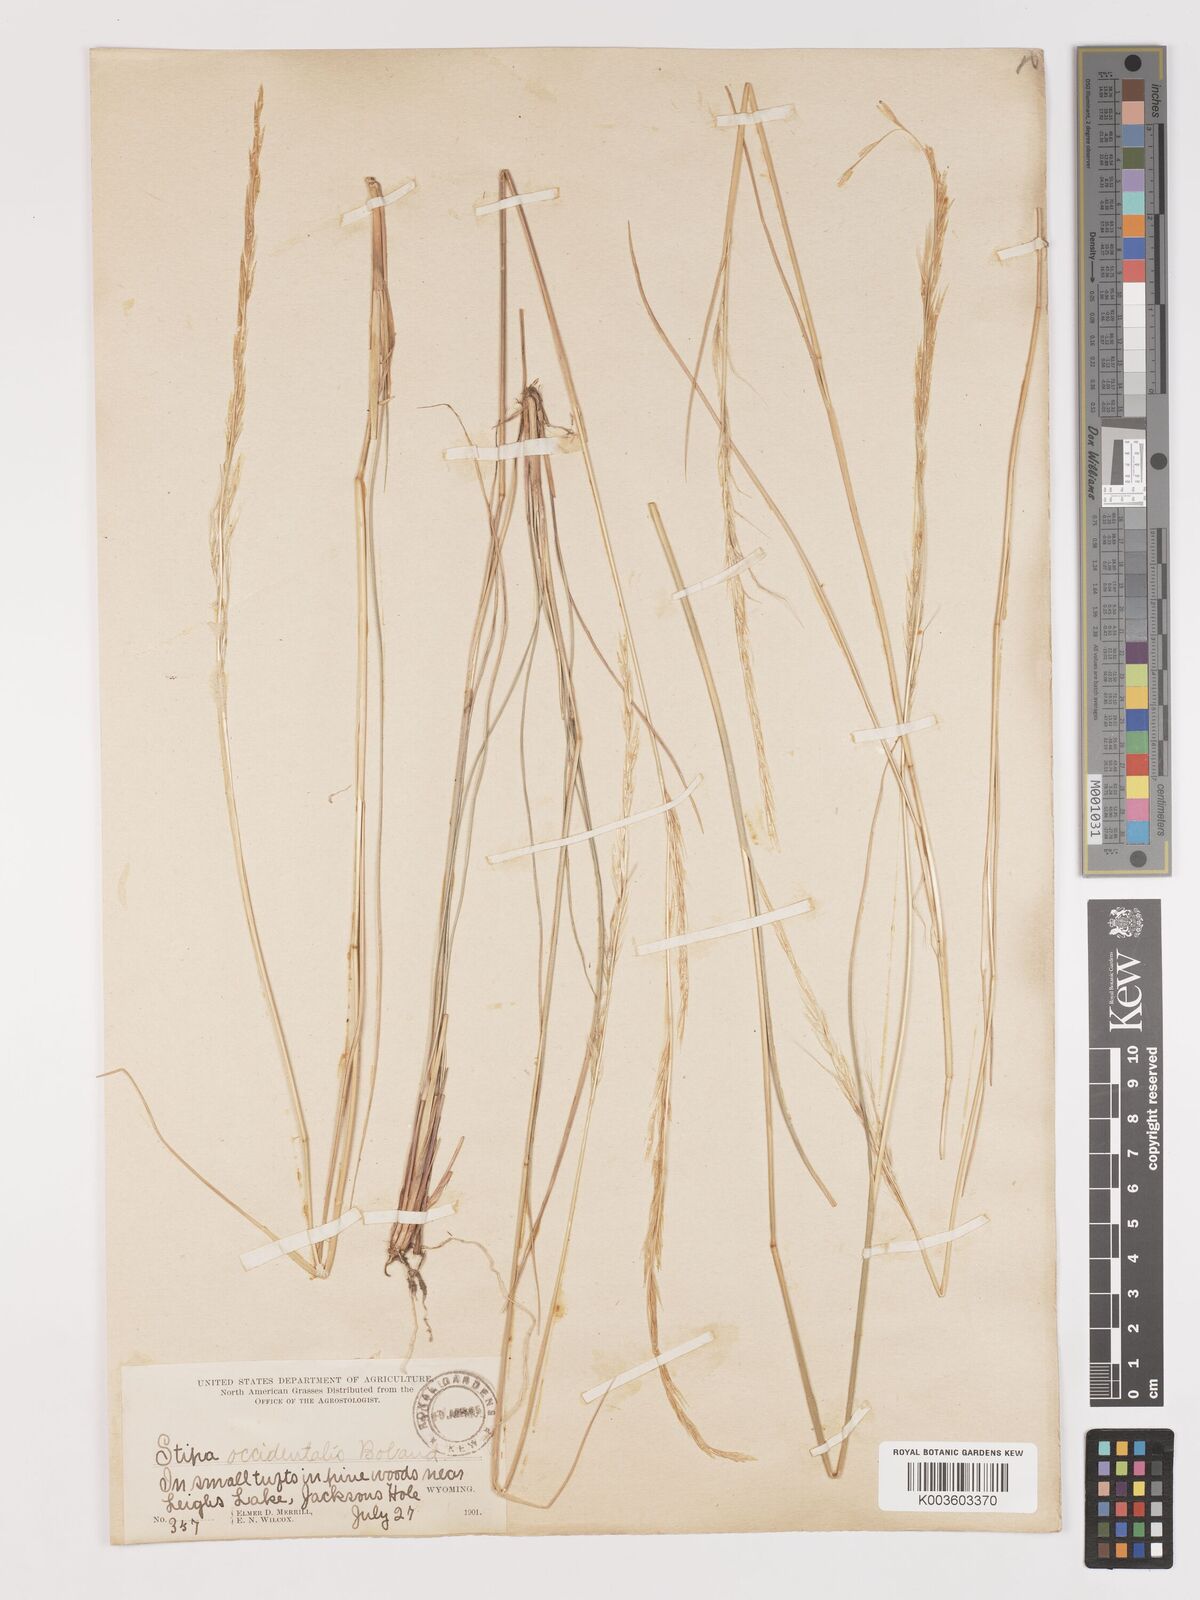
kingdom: Plantae
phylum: Tracheophyta
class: Liliopsida
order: Poales
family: Poaceae
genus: Eriocoma
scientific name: Eriocoma thurberiana
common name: Thurber's needlegrass
